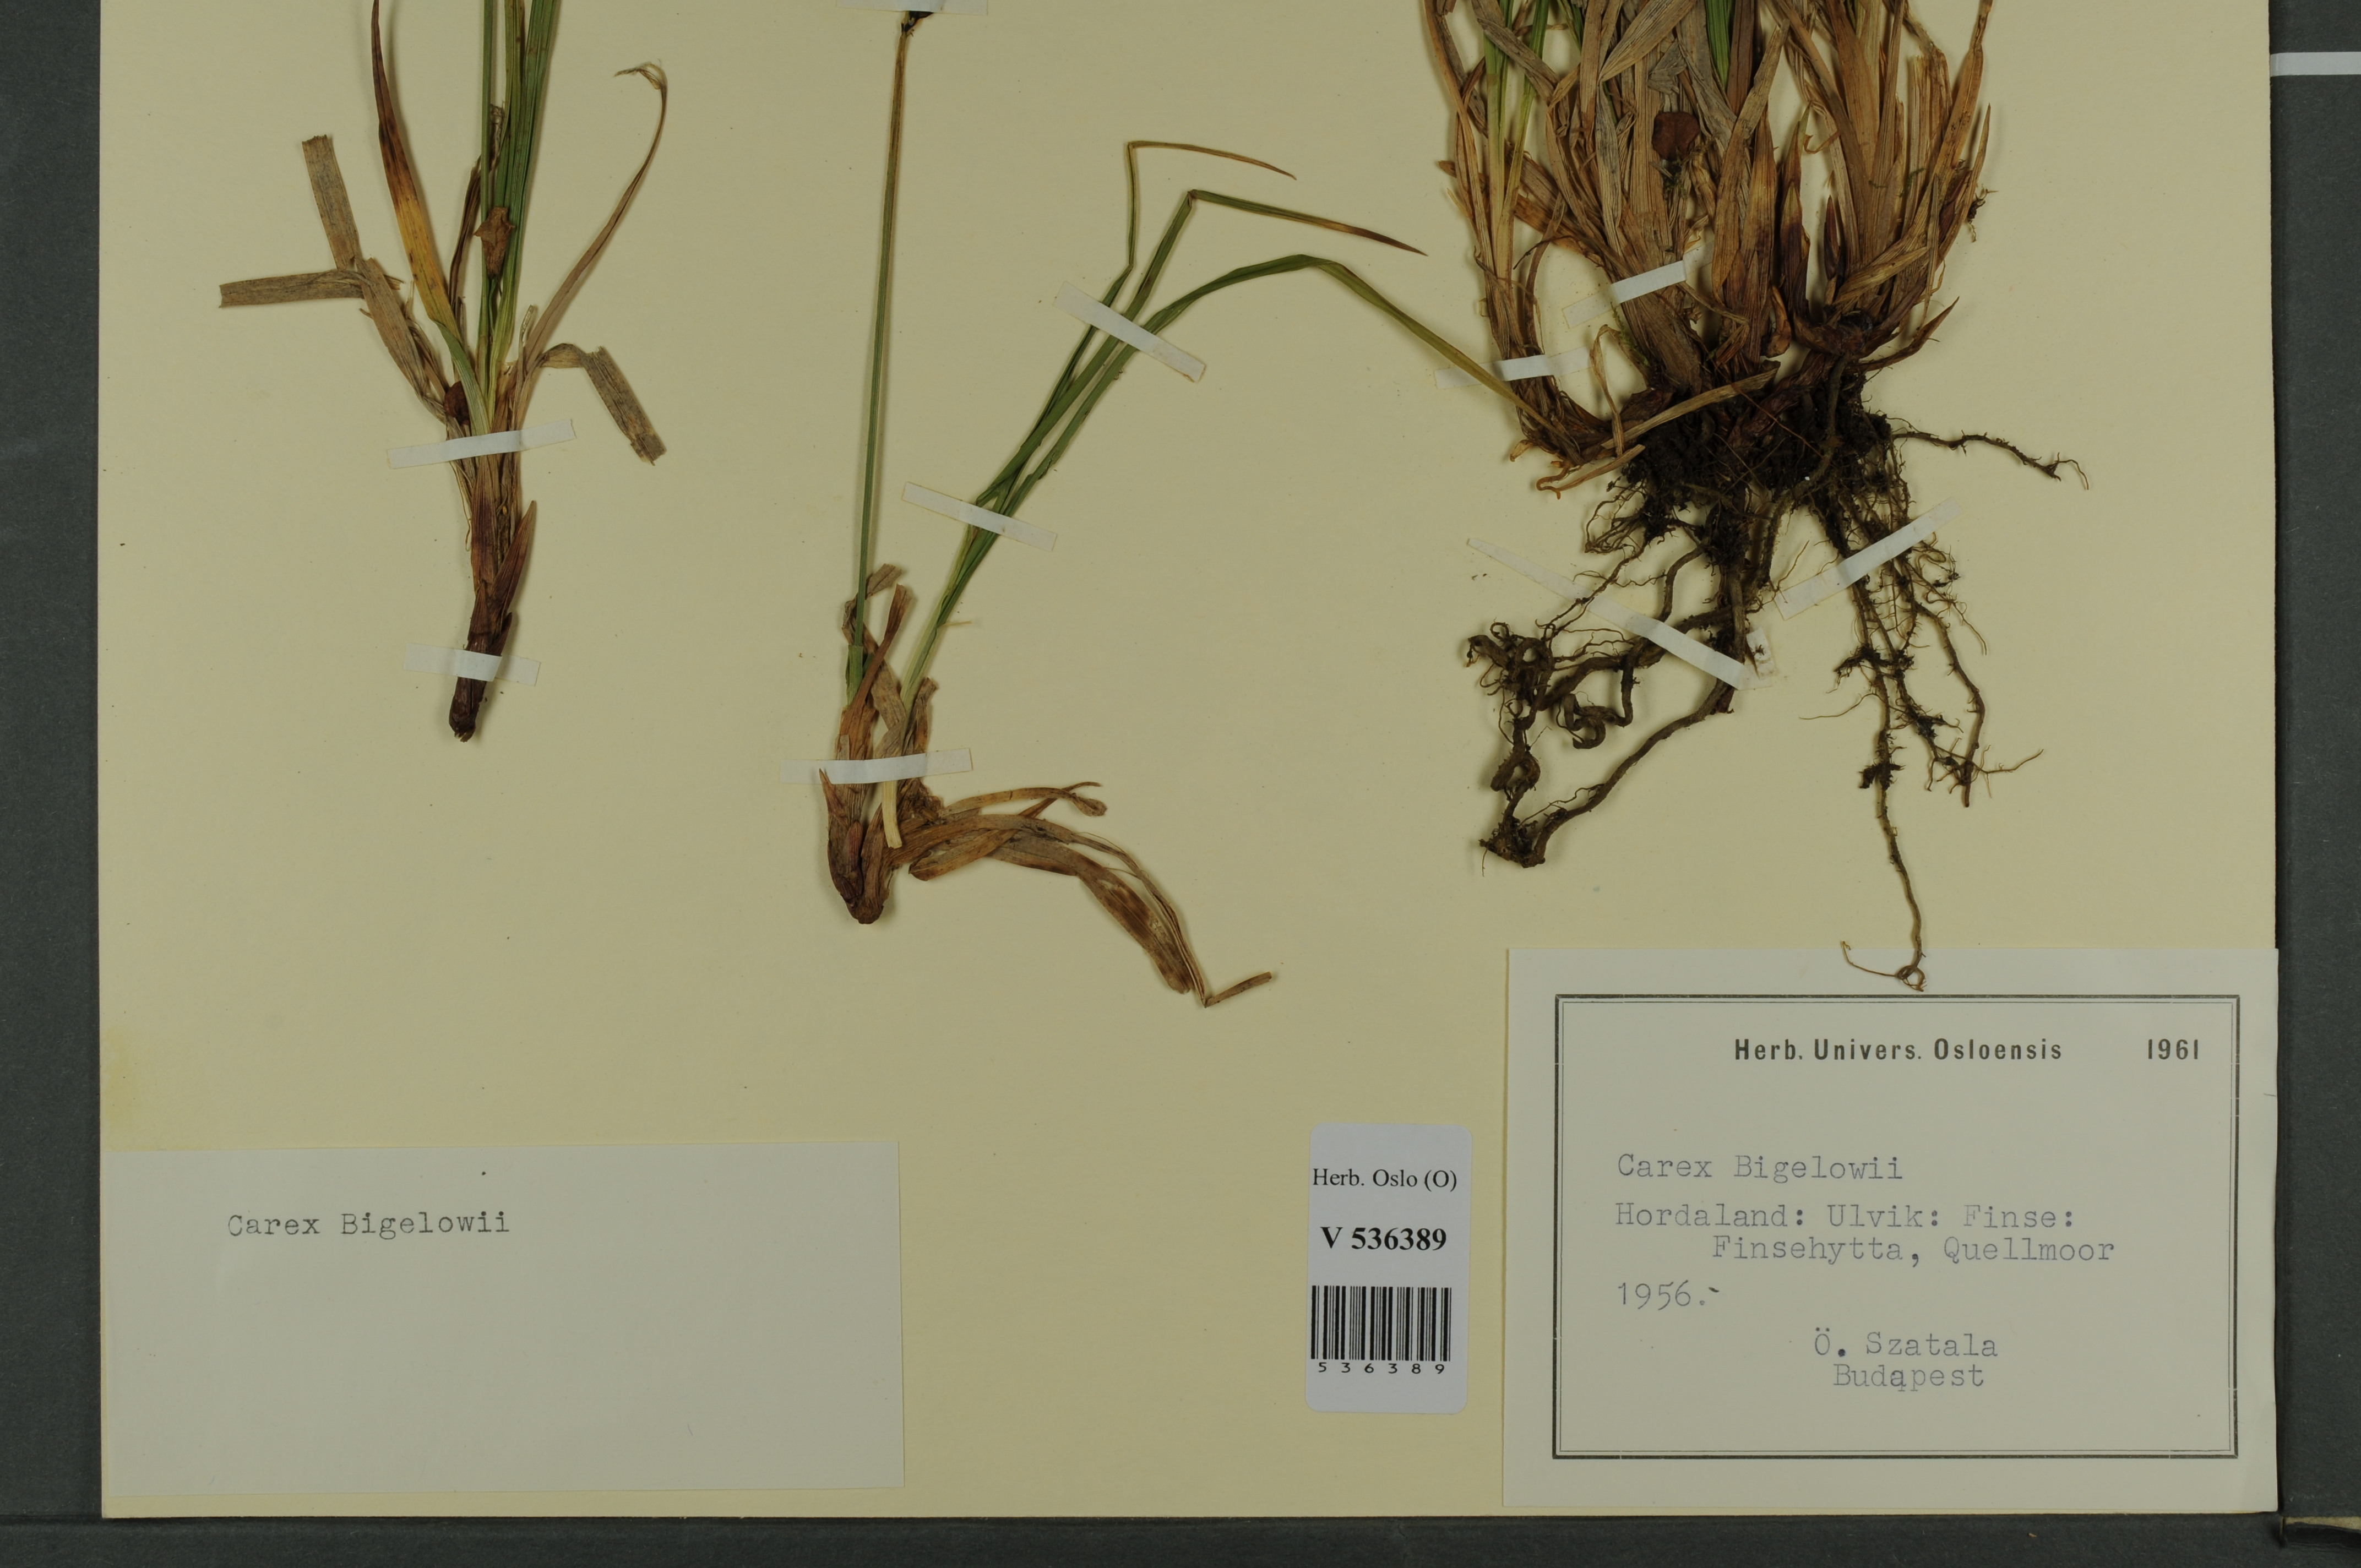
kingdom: Plantae
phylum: Tracheophyta
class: Liliopsida
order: Poales
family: Cyperaceae
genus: Carex
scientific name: Carex bigelowii
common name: Stiff sedge
